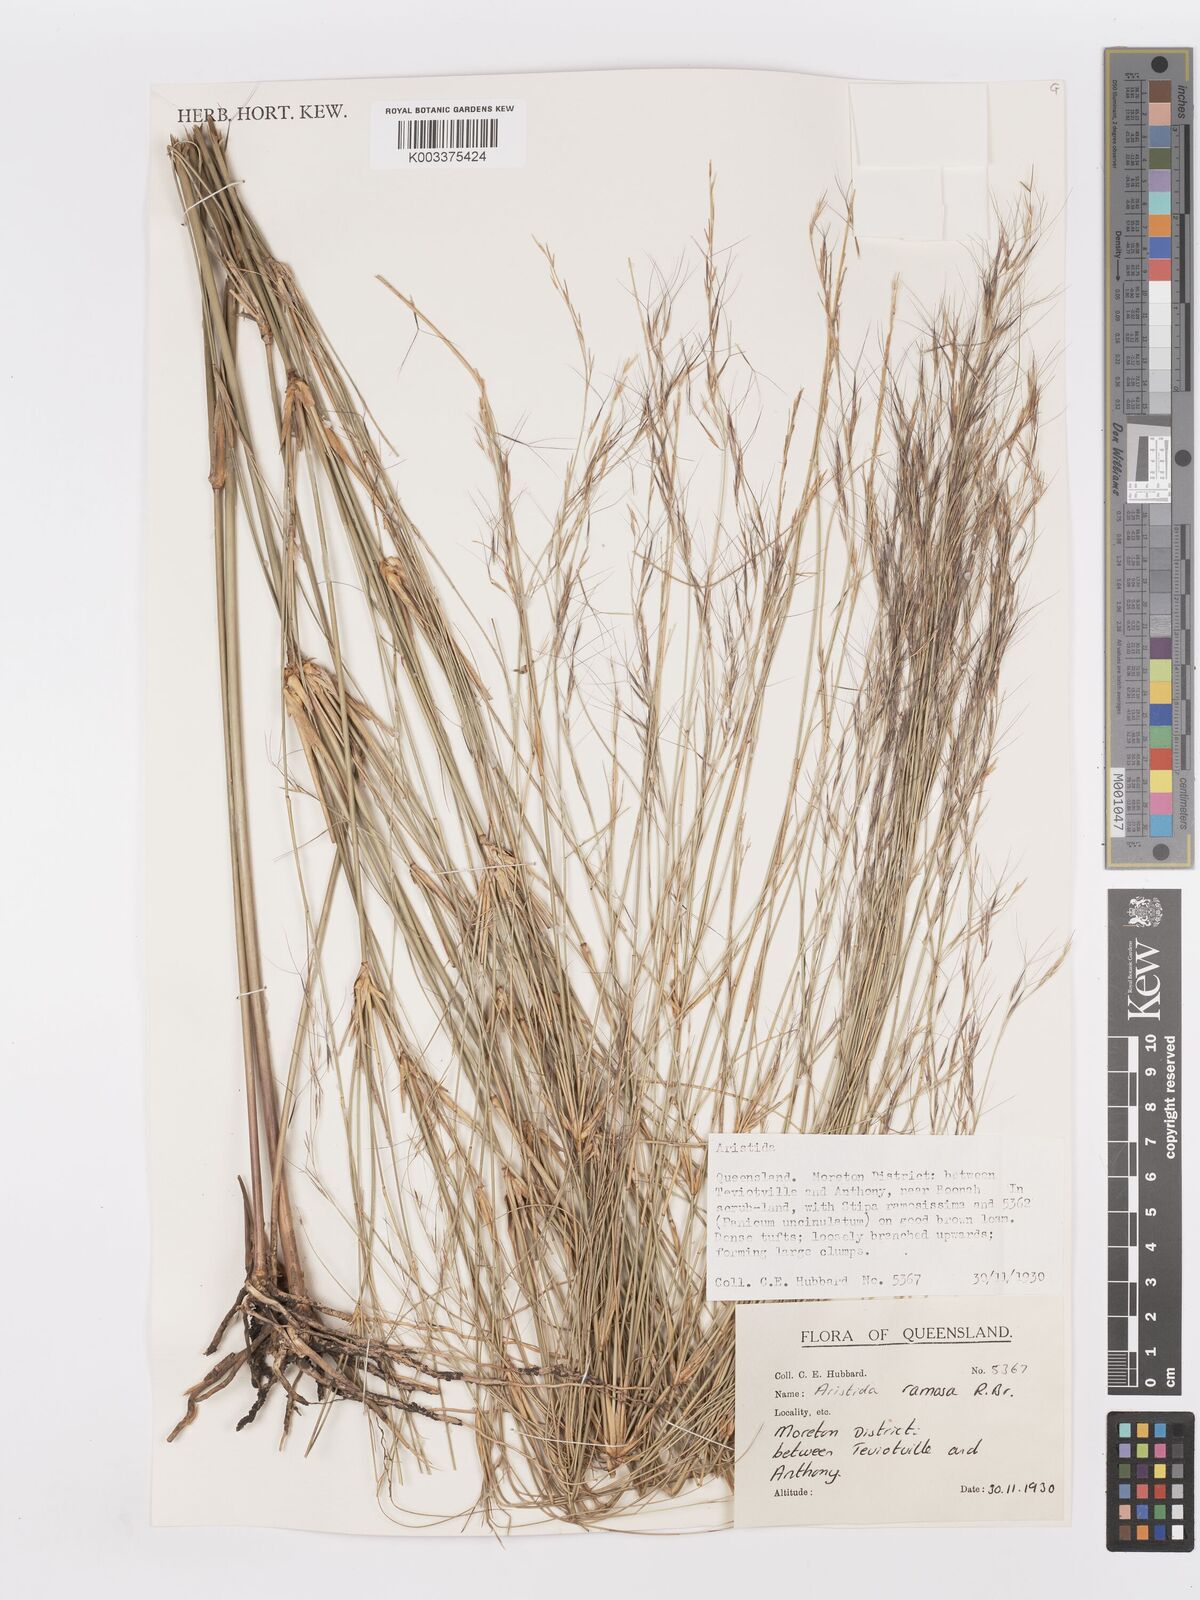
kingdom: Plantae
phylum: Tracheophyta
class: Liliopsida
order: Poales
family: Poaceae
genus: Aristida
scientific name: Aristida ramosa
